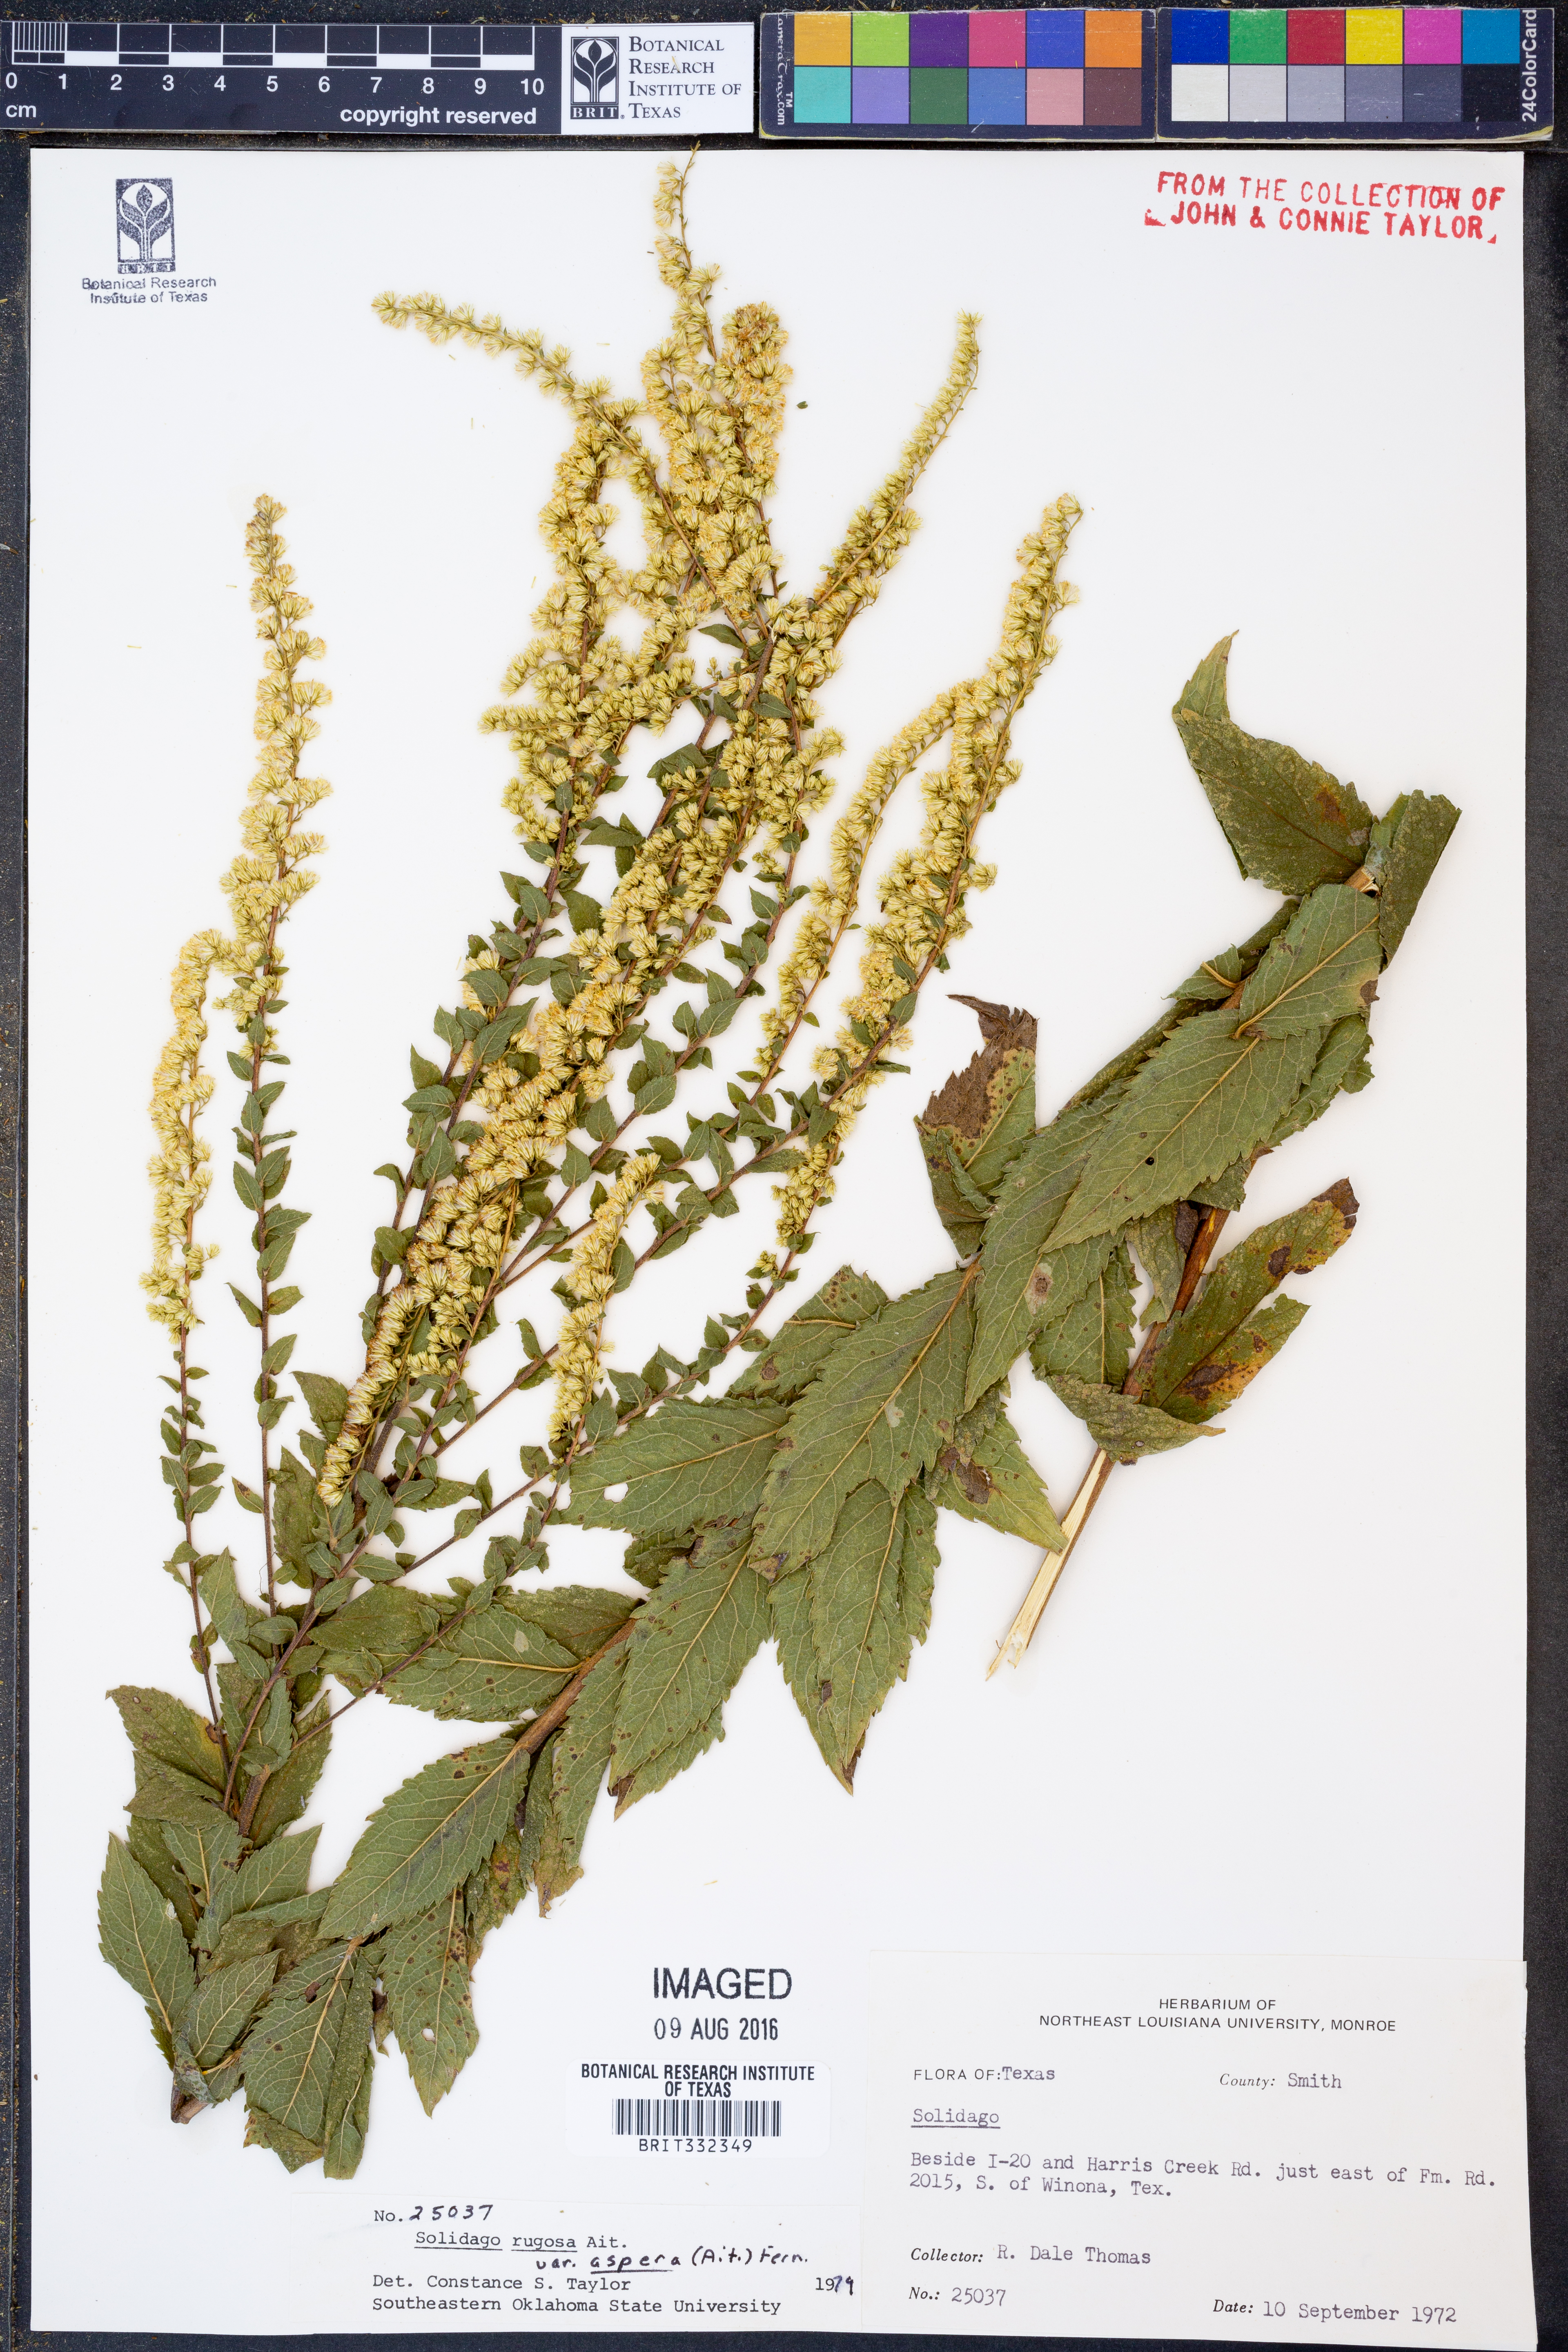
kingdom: Plantae
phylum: Tracheophyta
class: Magnoliopsida
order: Asterales
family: Asteraceae
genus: Solidago
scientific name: Solidago rugosa
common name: Rough-stemmed goldenrod
